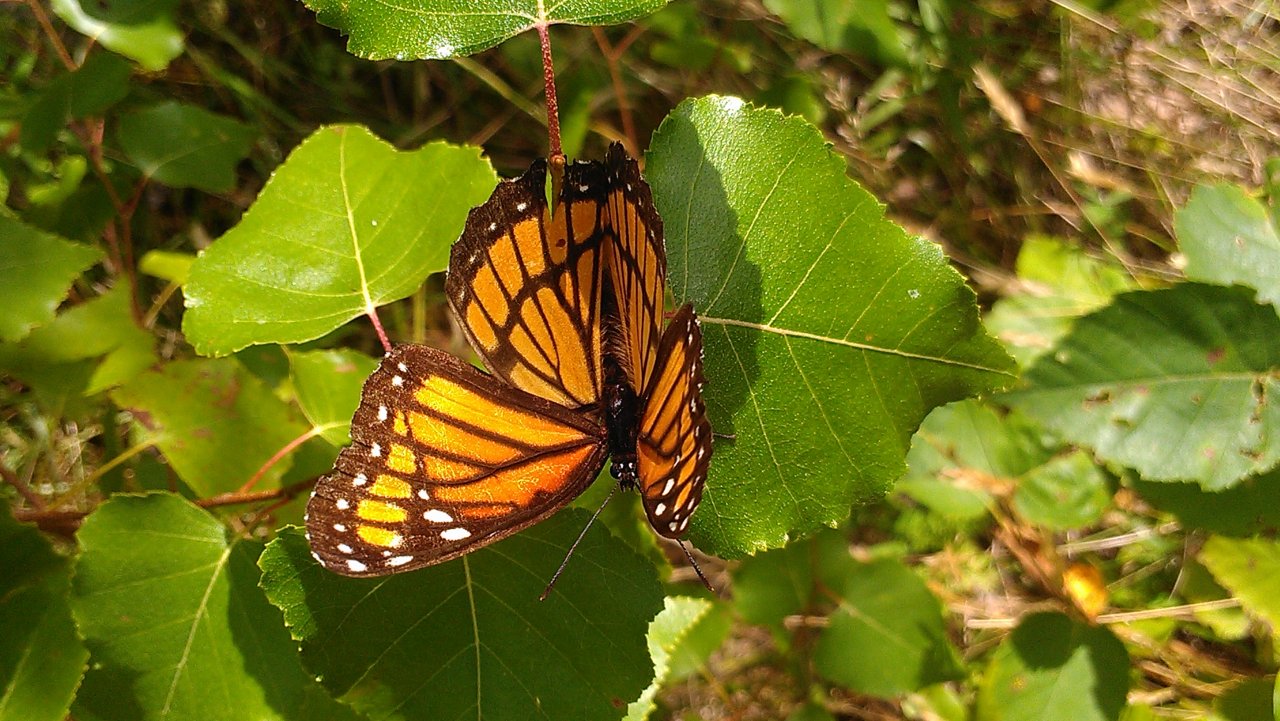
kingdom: Animalia
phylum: Arthropoda
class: Insecta
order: Lepidoptera
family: Nymphalidae
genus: Limenitis
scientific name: Limenitis archippus
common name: Viceroy
